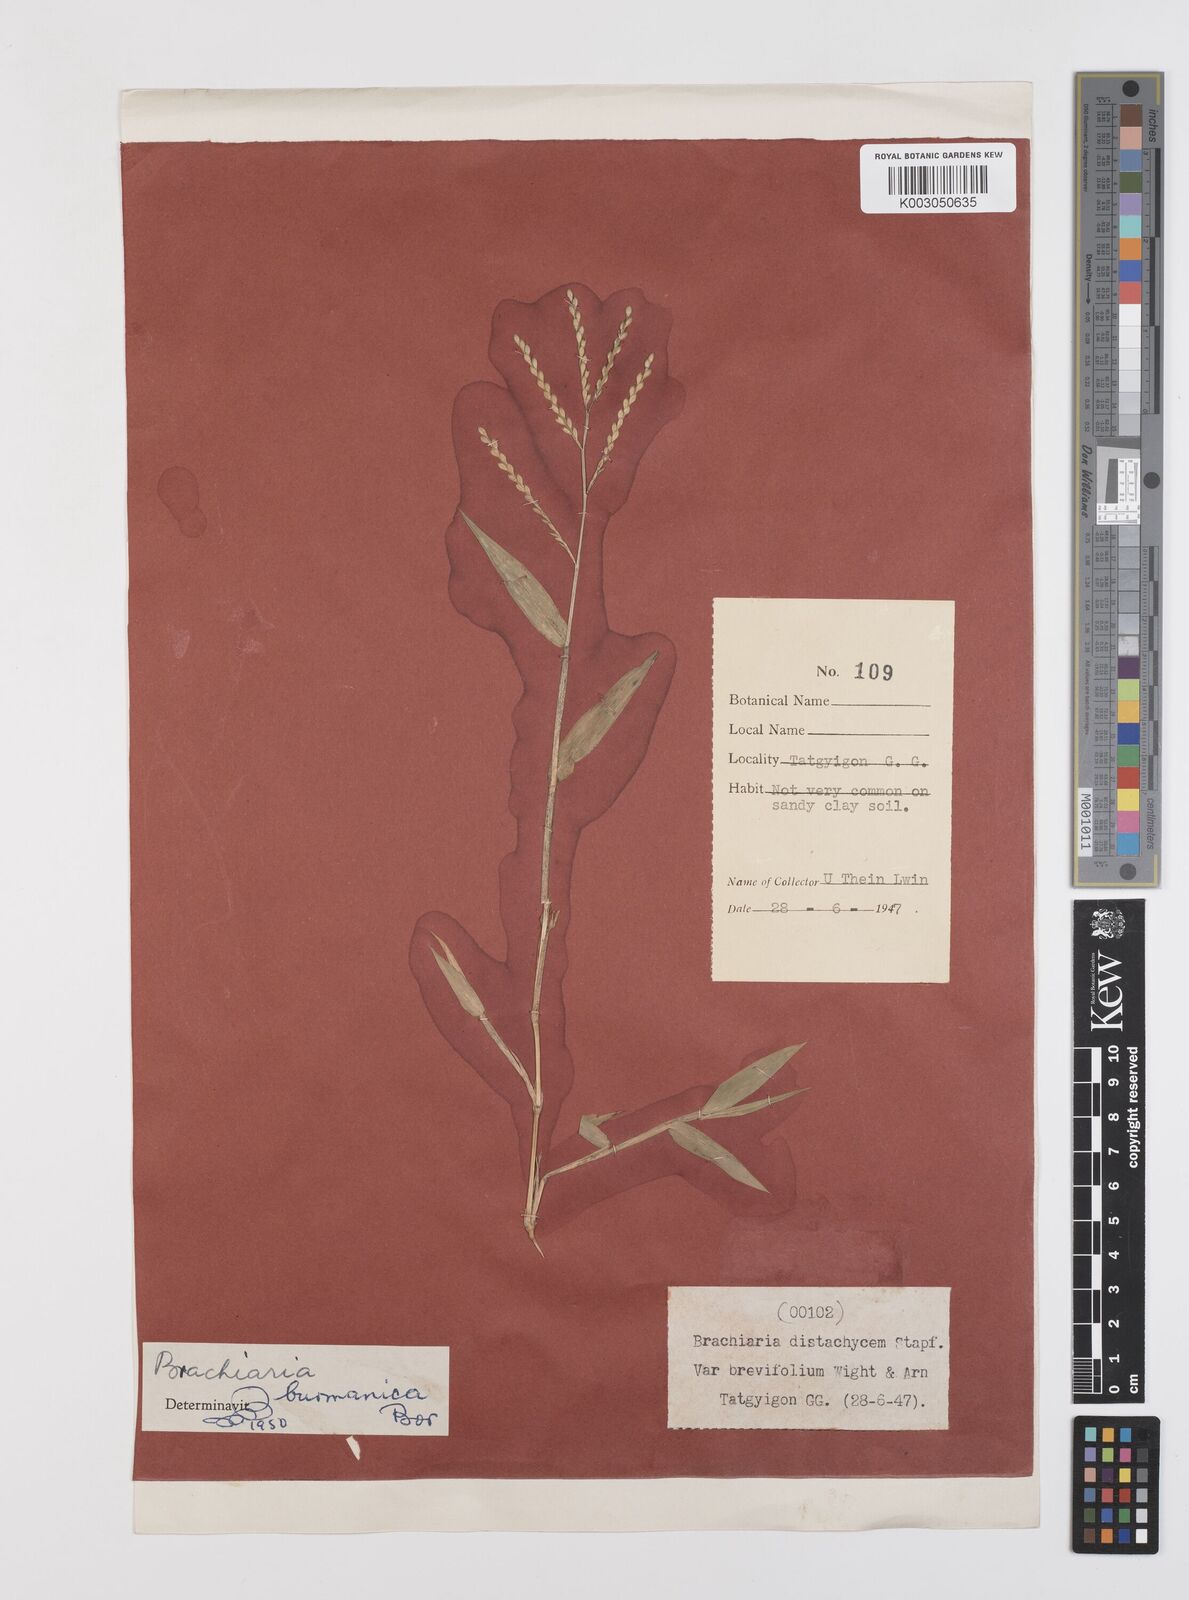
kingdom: Plantae
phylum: Tracheophyta
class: Liliopsida
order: Poales
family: Poaceae
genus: Urochloa
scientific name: Urochloa burmanica
